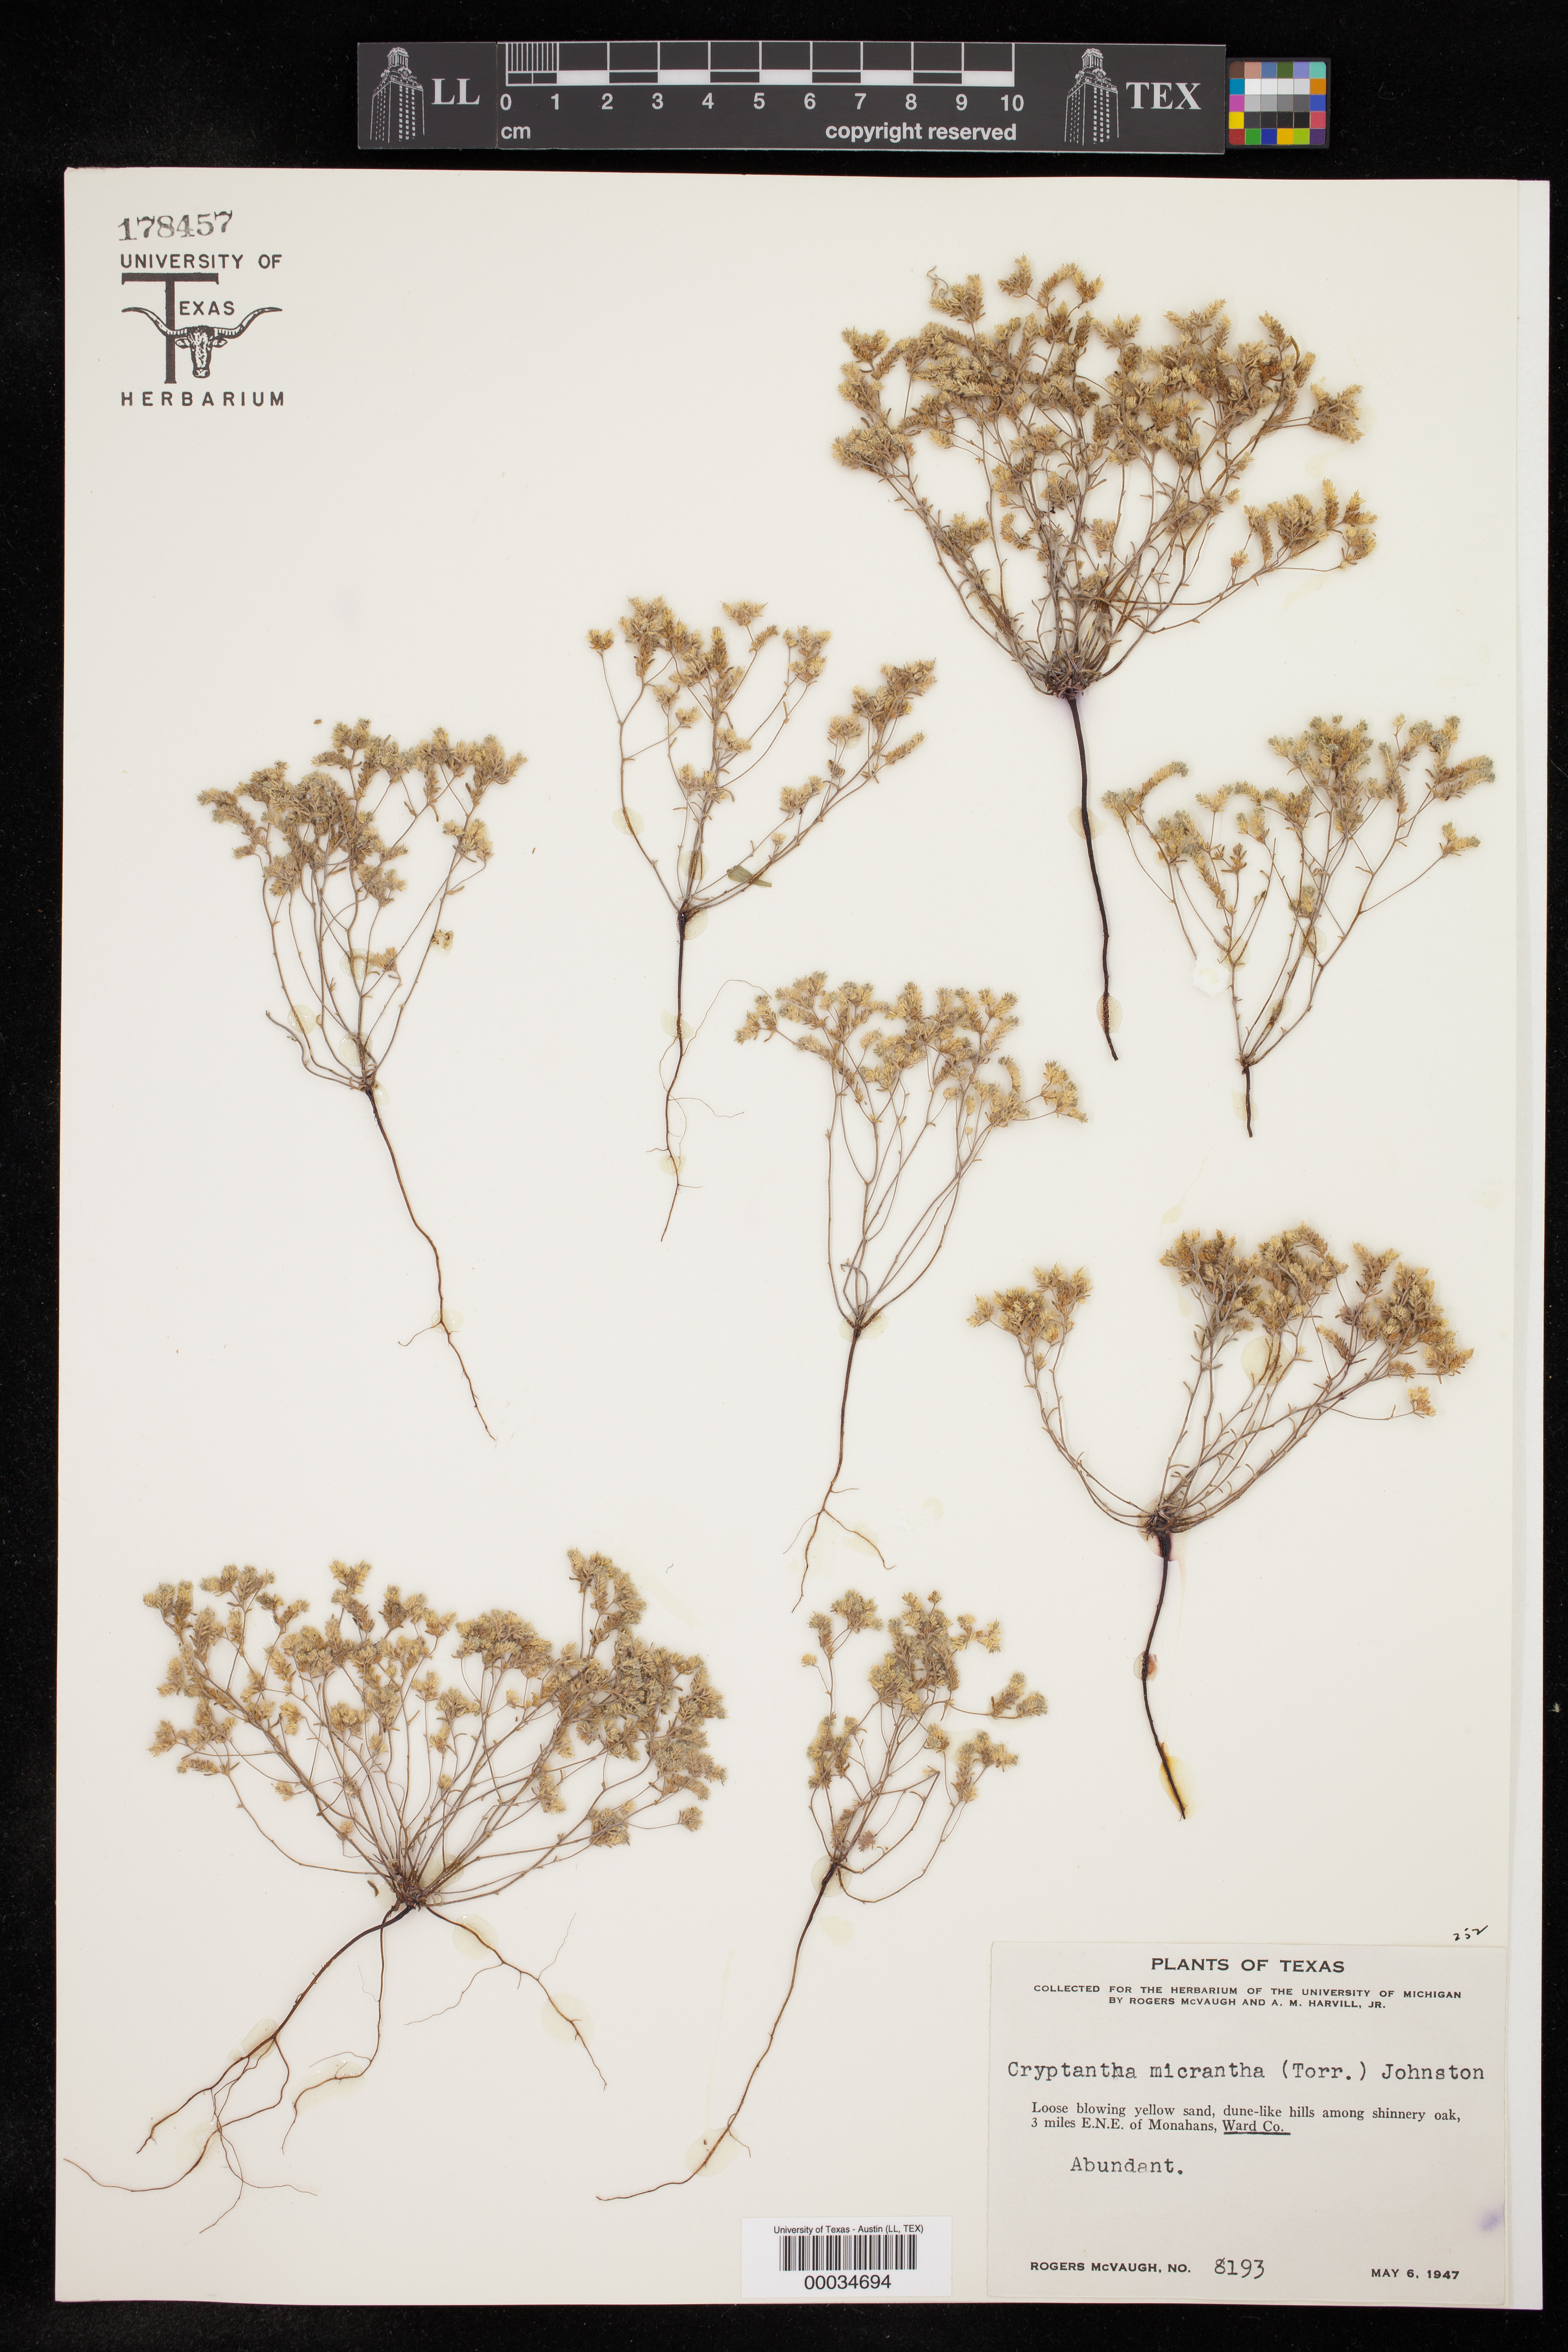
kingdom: Plantae
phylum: Tracheophyta
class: Magnoliopsida
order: Boraginales
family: Boraginaceae
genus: Eremocarya
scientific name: Eremocarya micrantha
